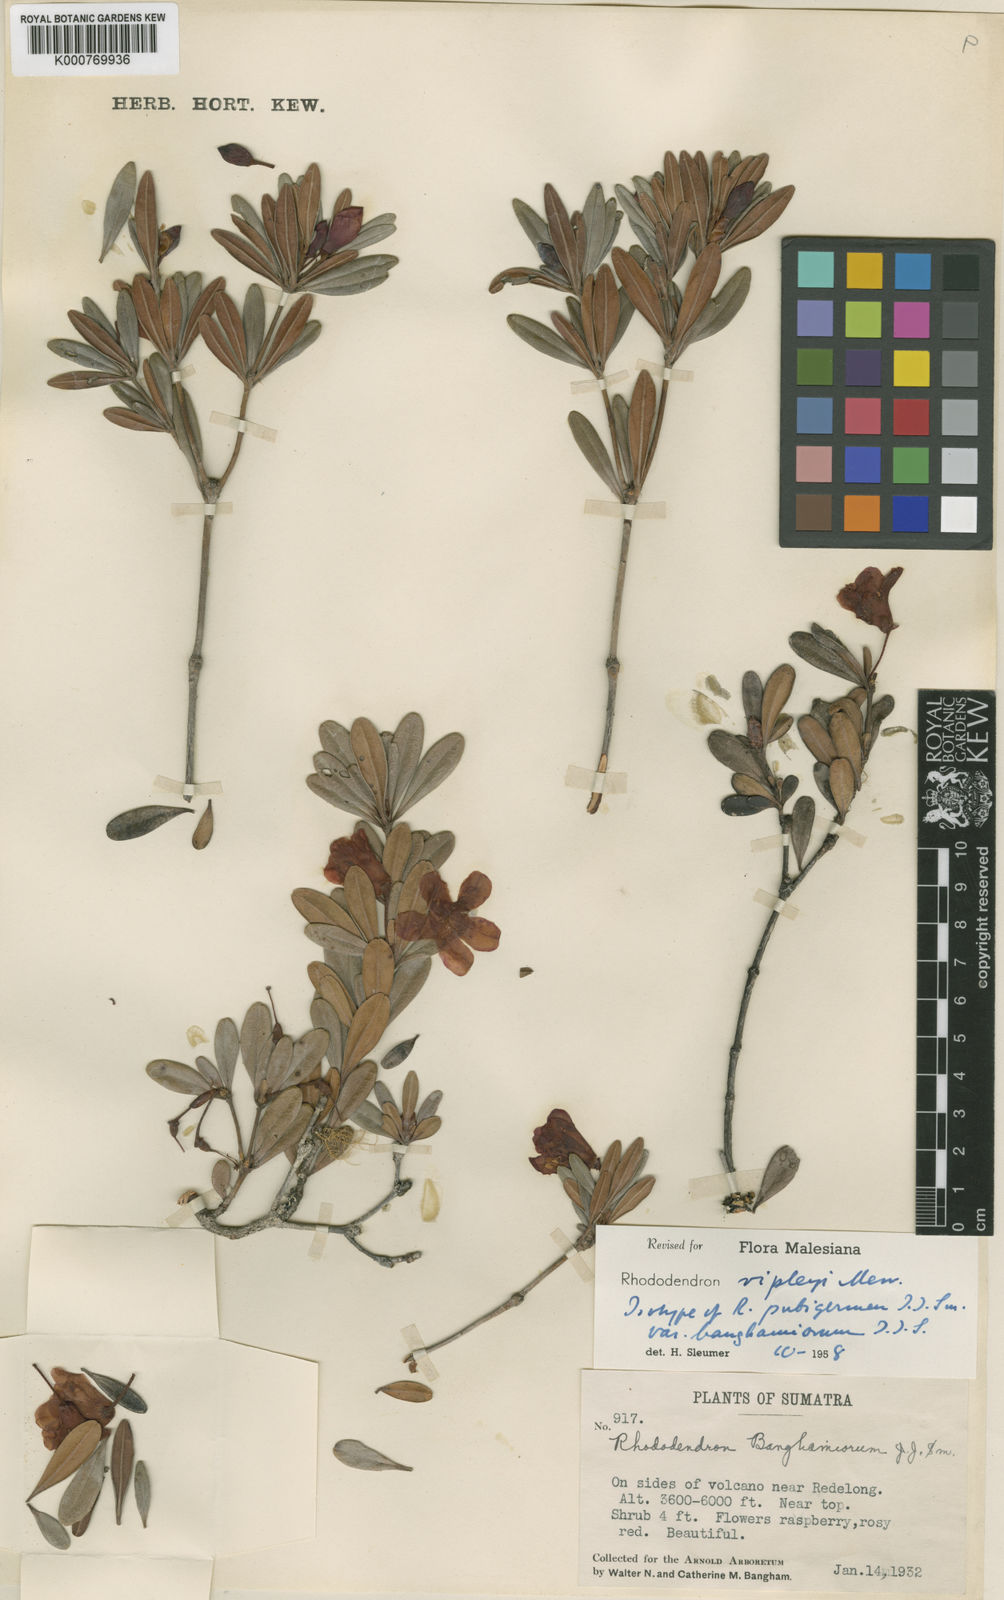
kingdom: Plantae
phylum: Tracheophyta
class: Magnoliopsida
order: Ericales
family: Ericaceae
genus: Rhododendron
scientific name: Rhododendron ripleyi
